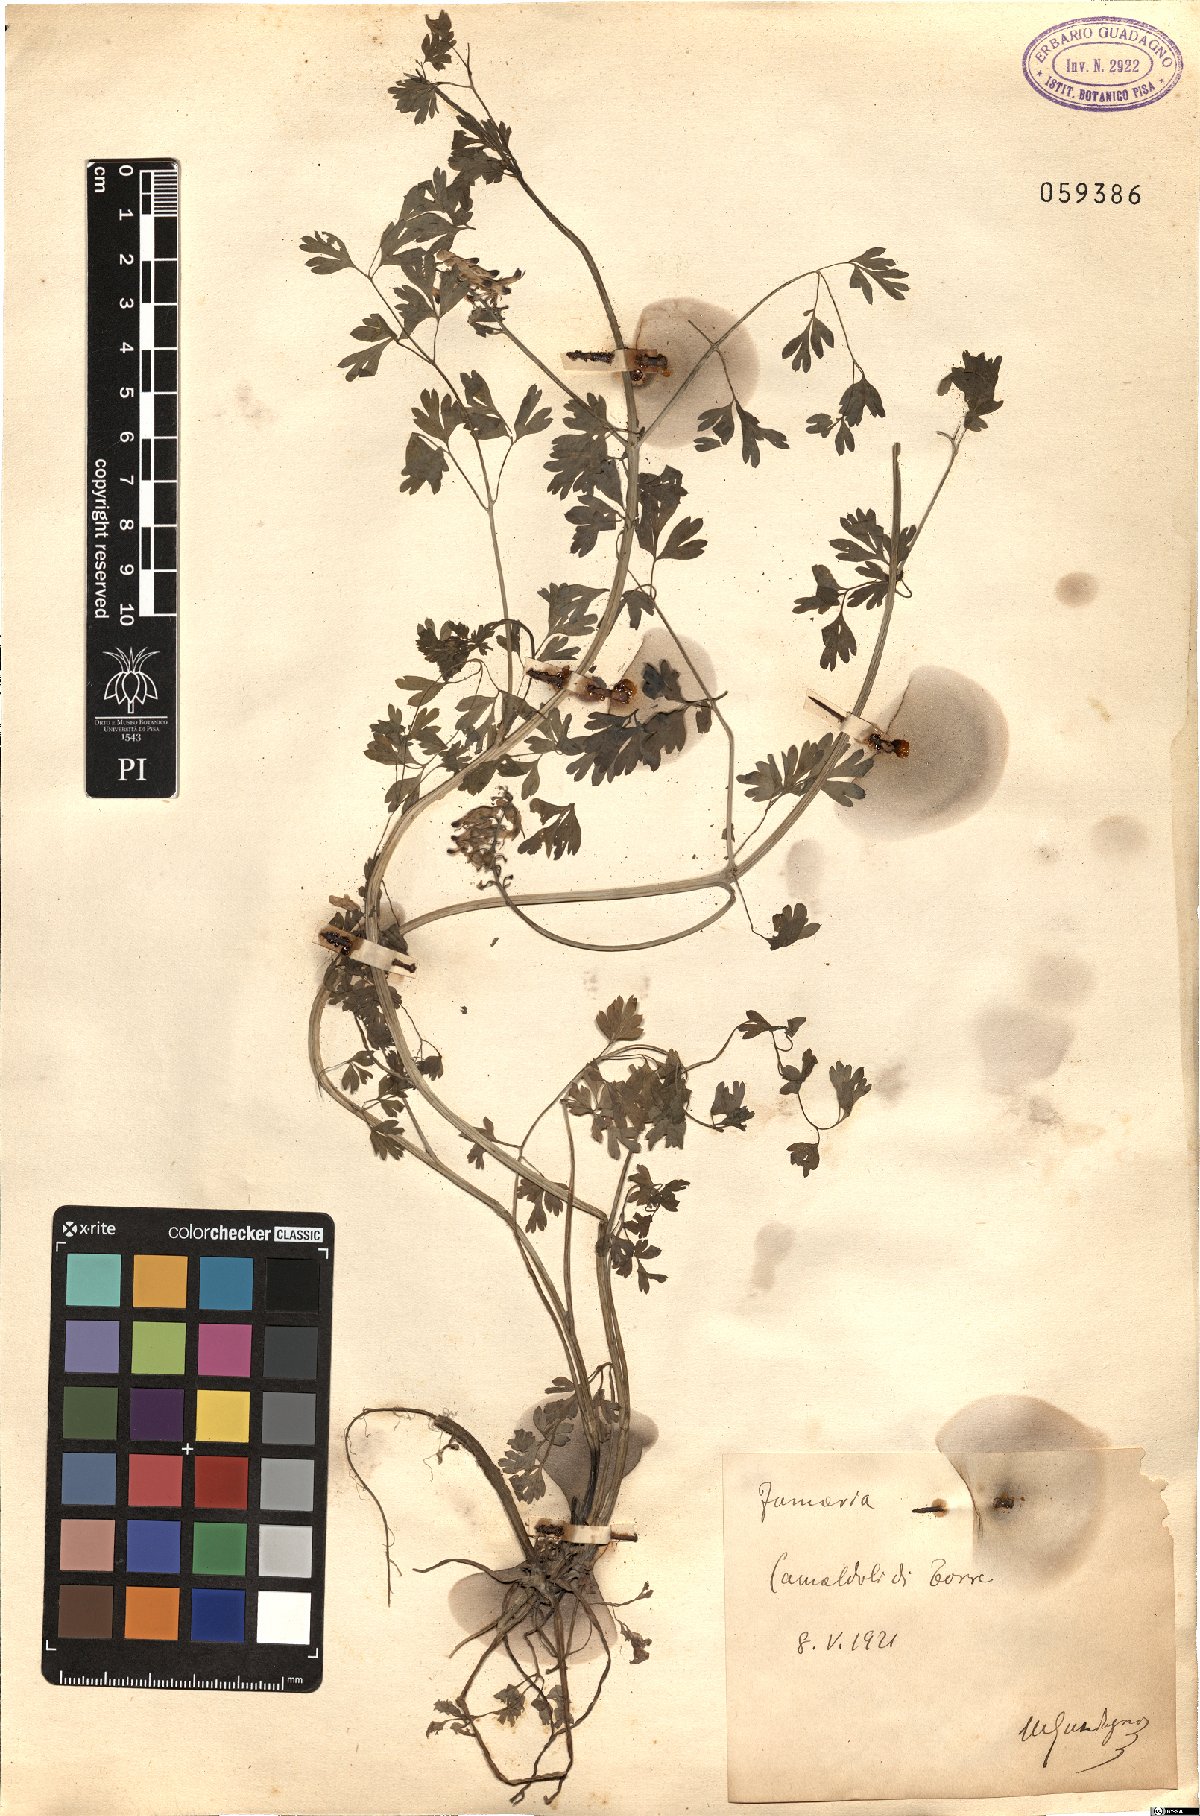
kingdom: Plantae
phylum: Tracheophyta
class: Magnoliopsida
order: Ranunculales
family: Papaveraceae
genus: Fumaria
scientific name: Fumaria
